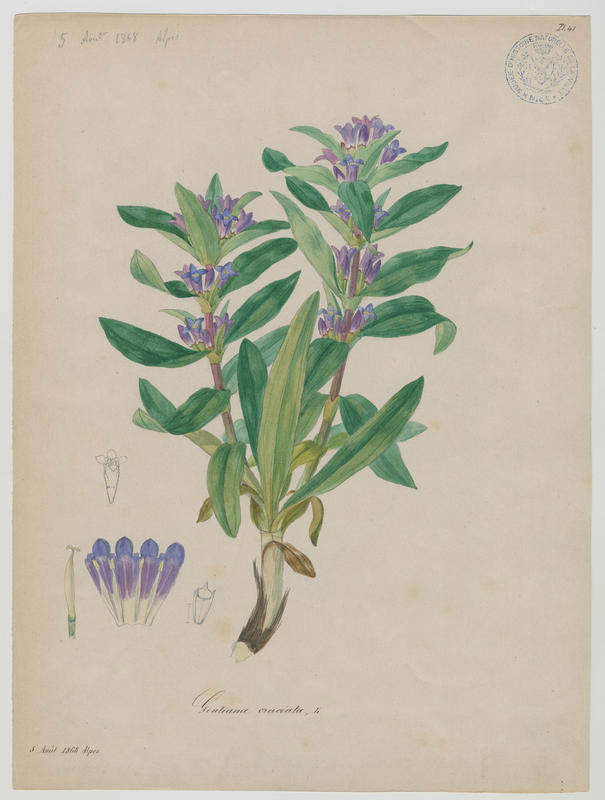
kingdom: Plantae
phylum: Tracheophyta
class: Magnoliopsida
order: Gentianales
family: Gentianaceae
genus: Gentiana
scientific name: Gentiana cruciata
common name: Cross gentian
